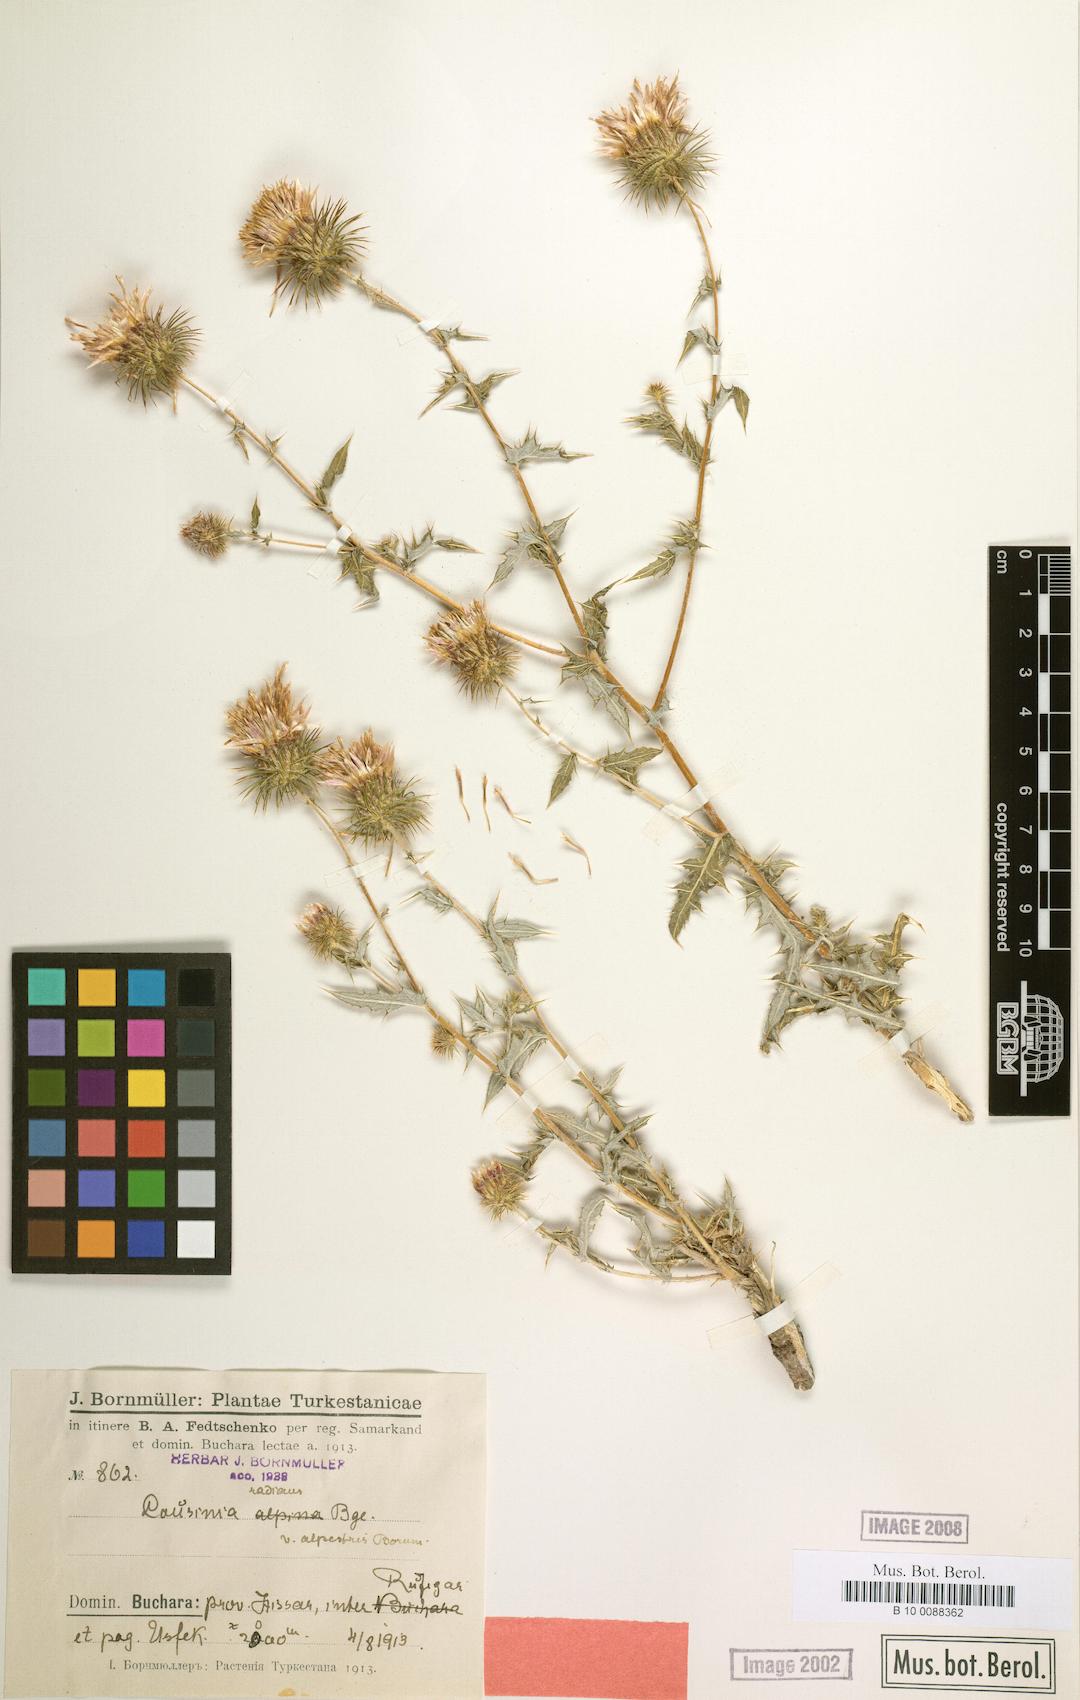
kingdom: Plantae
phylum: Tracheophyta
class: Magnoliopsida
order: Asterales
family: Asteraceae
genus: Cousinia
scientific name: Cousinia alpestris
